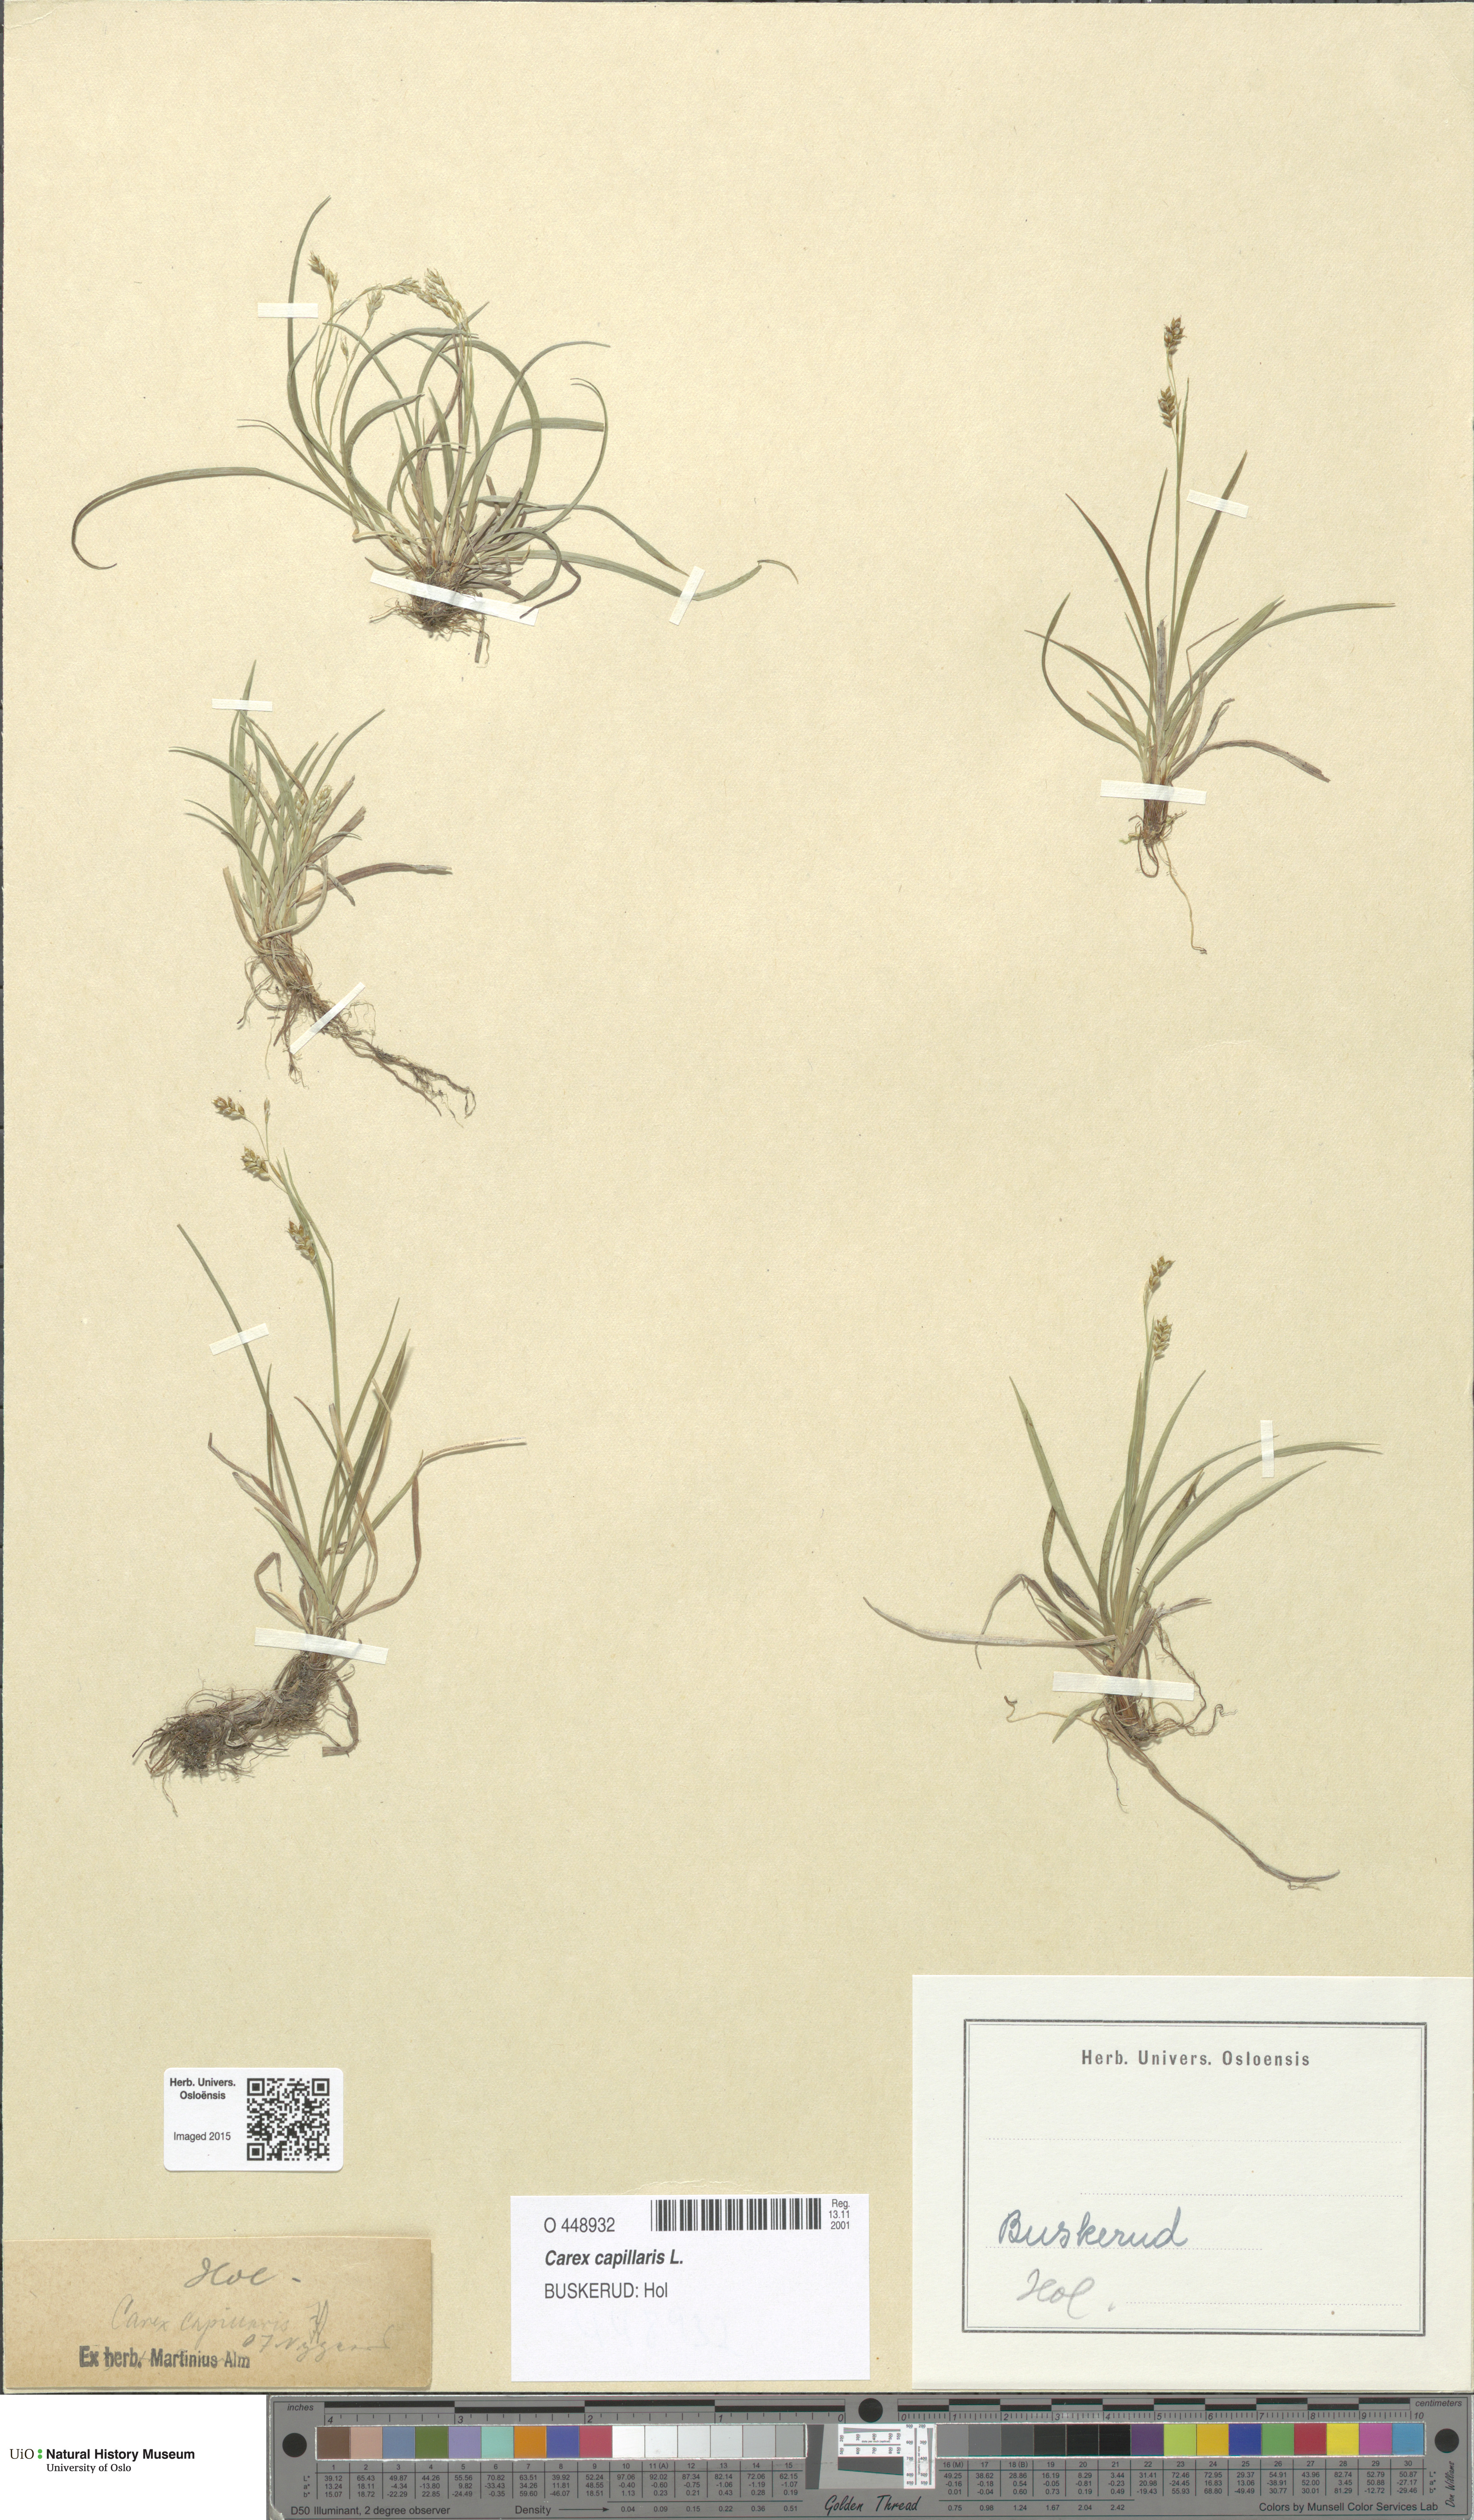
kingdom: Plantae
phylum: Tracheophyta
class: Liliopsida
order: Poales
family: Cyperaceae
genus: Carex
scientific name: Carex capillaris
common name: Hair sedge
